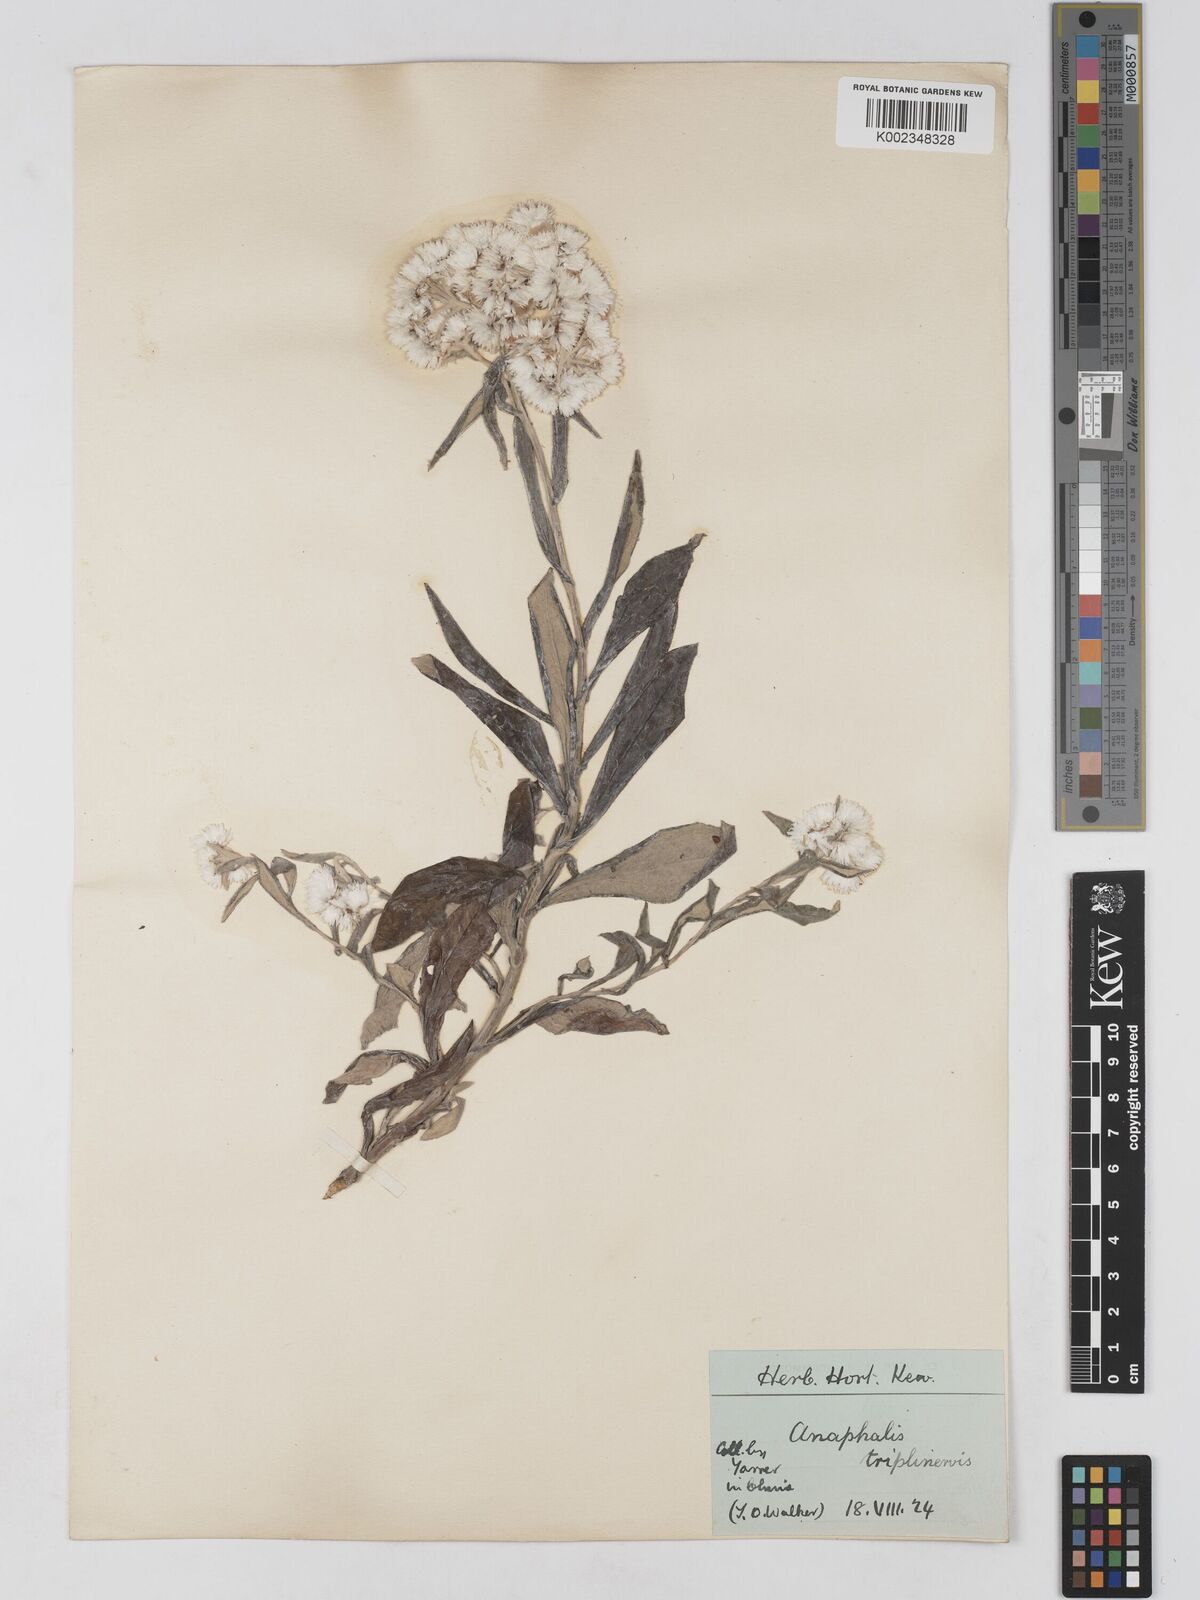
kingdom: Plantae
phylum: Tracheophyta
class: Magnoliopsida
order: Asterales
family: Asteraceae
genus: Anaphalis
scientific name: Anaphalis triplinervis
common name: Pearly everlasting
